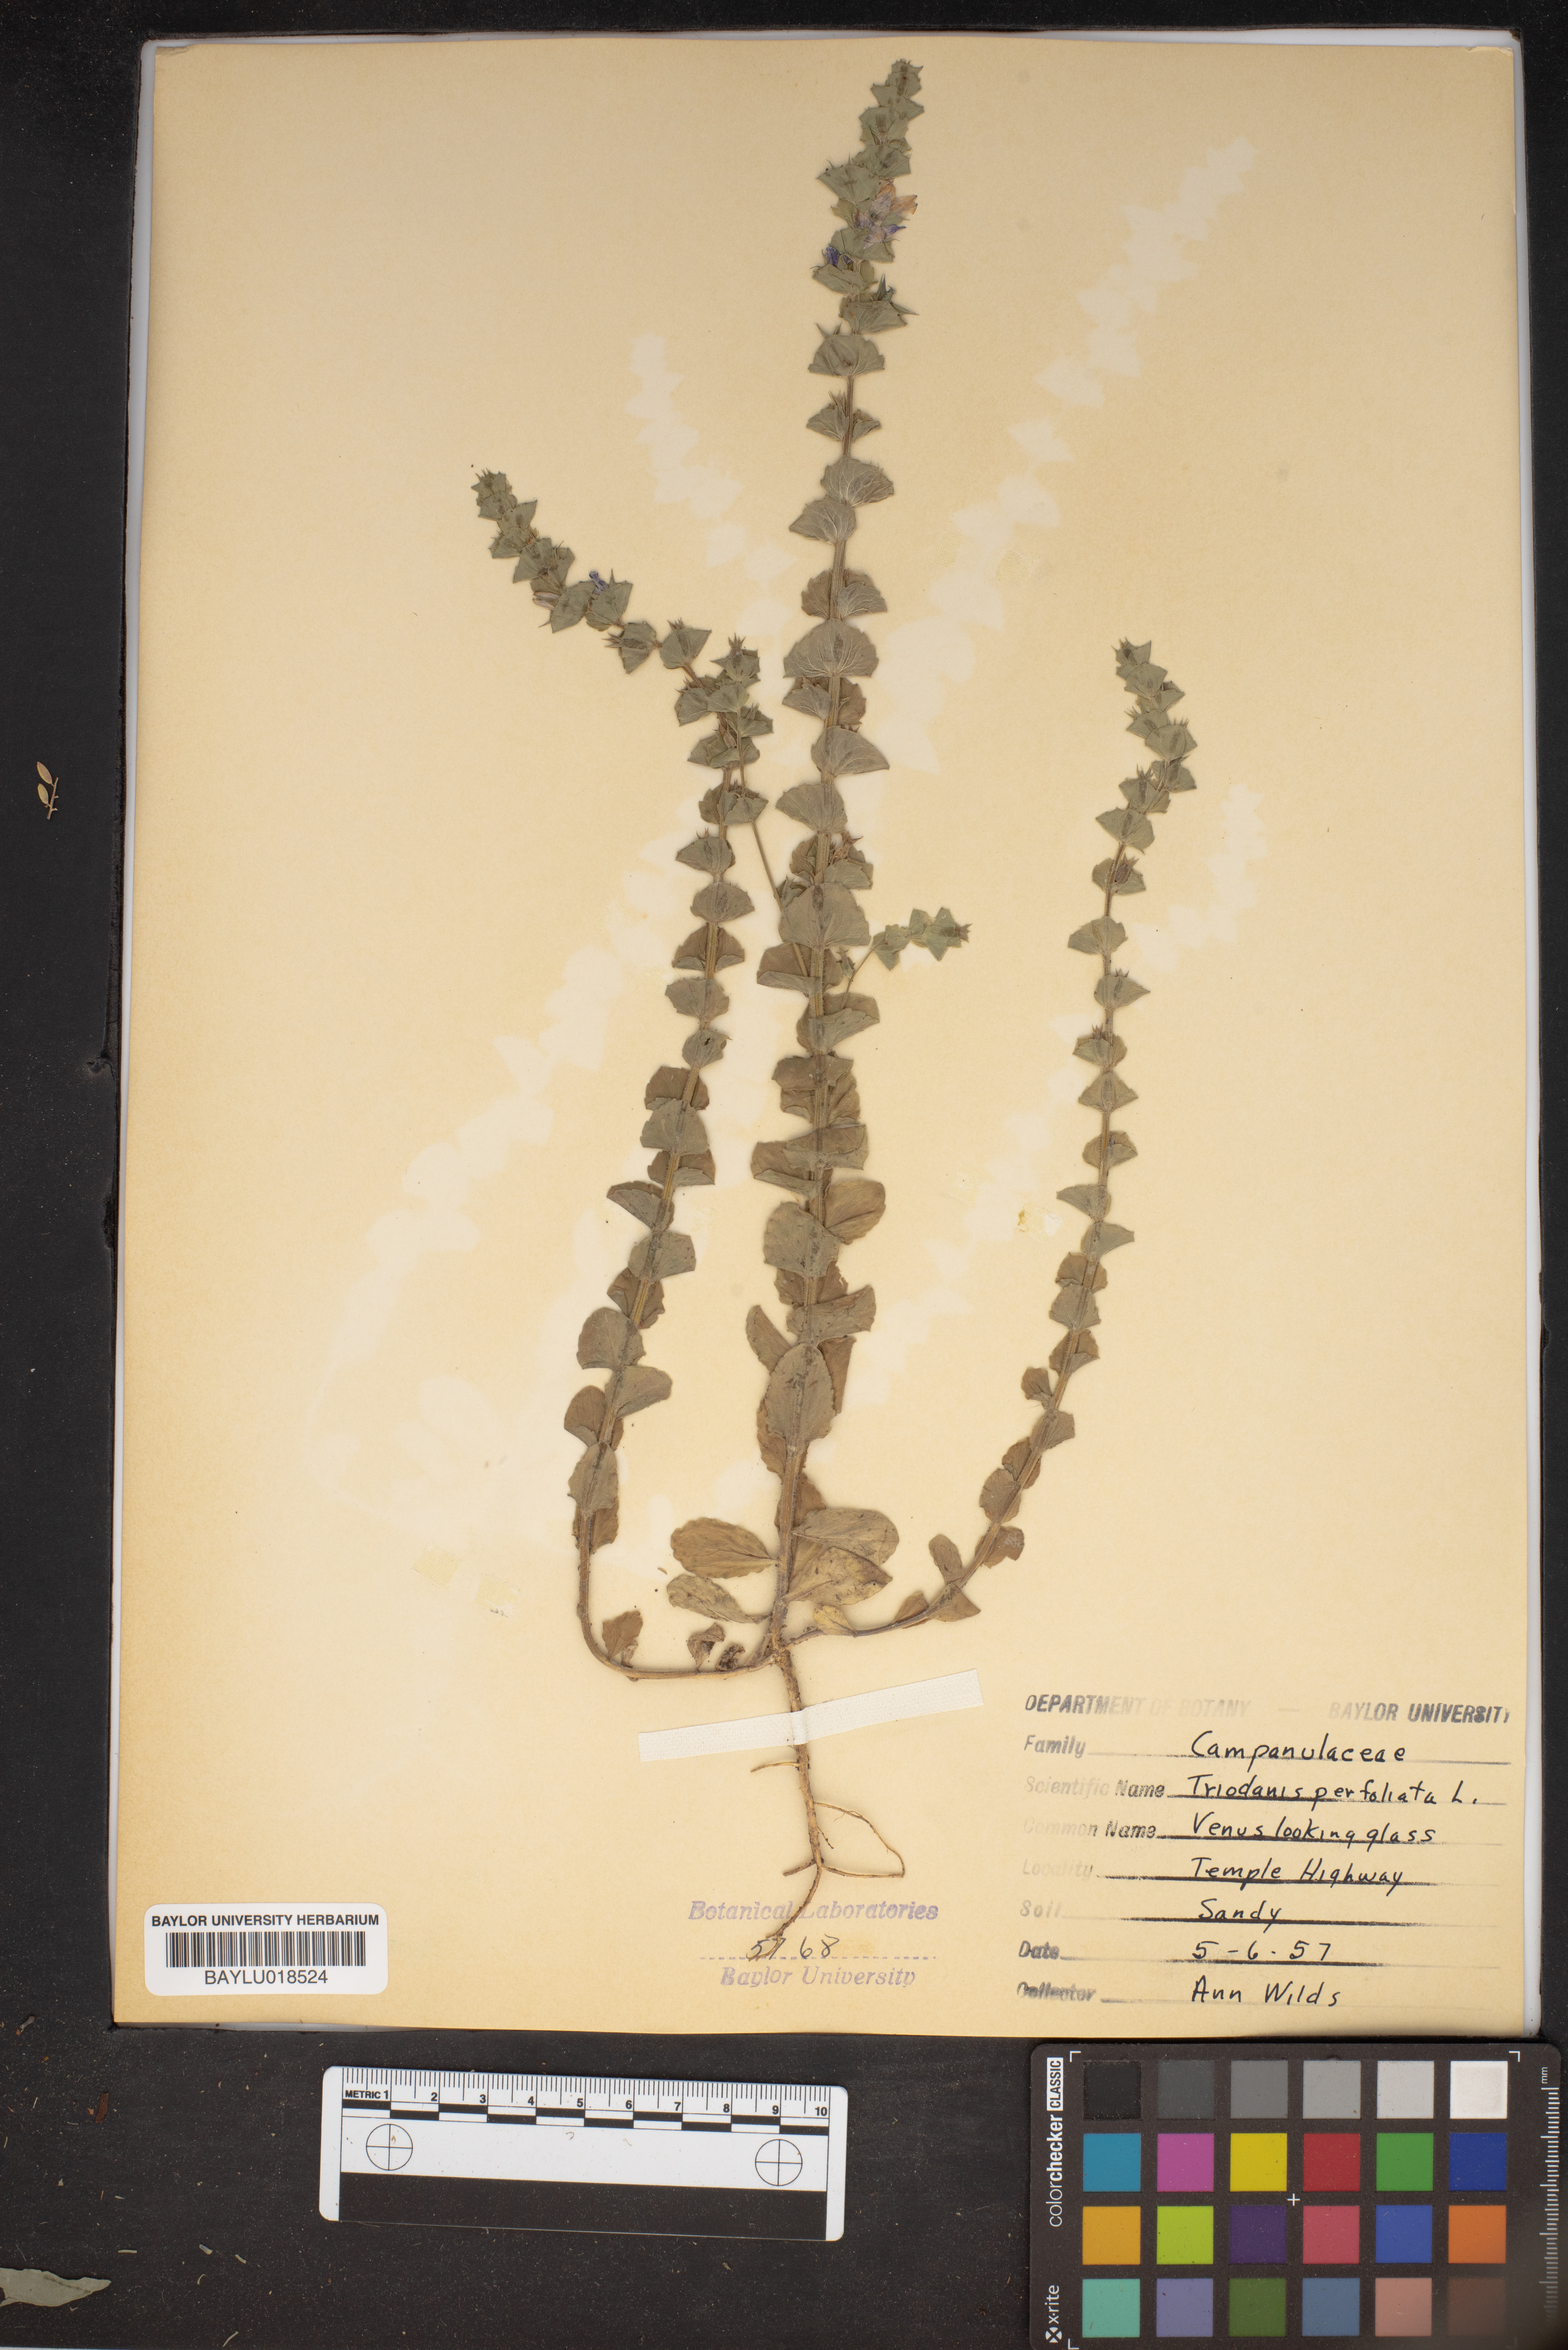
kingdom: Plantae
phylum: Tracheophyta
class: Magnoliopsida
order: Asterales
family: Campanulaceae
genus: Triodanis
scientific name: Triodanis perfoliata
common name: Clasping venus' looking-glass
